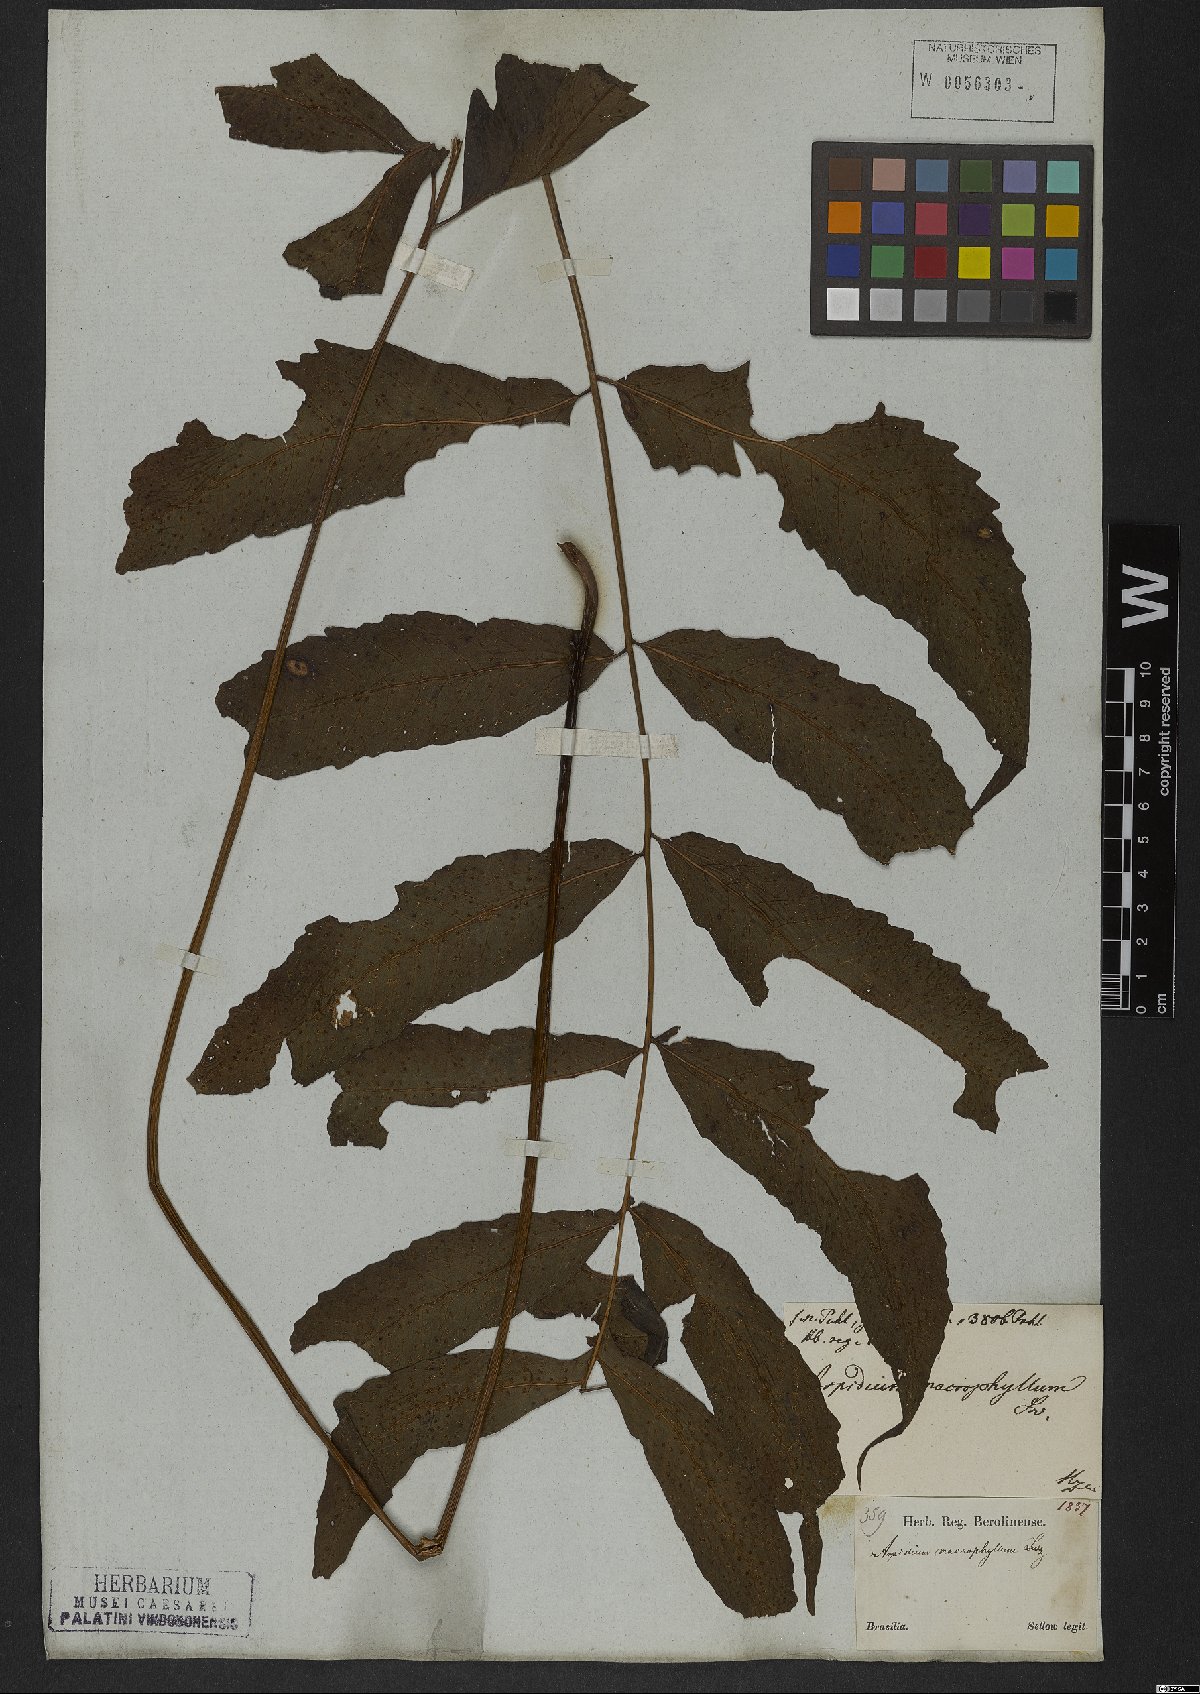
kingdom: Plantae
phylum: Tracheophyta
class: Polypodiopsida
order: Polypodiales
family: Tectariaceae
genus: Tectaria
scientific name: Tectaria incisa
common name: Incised halberd fern
